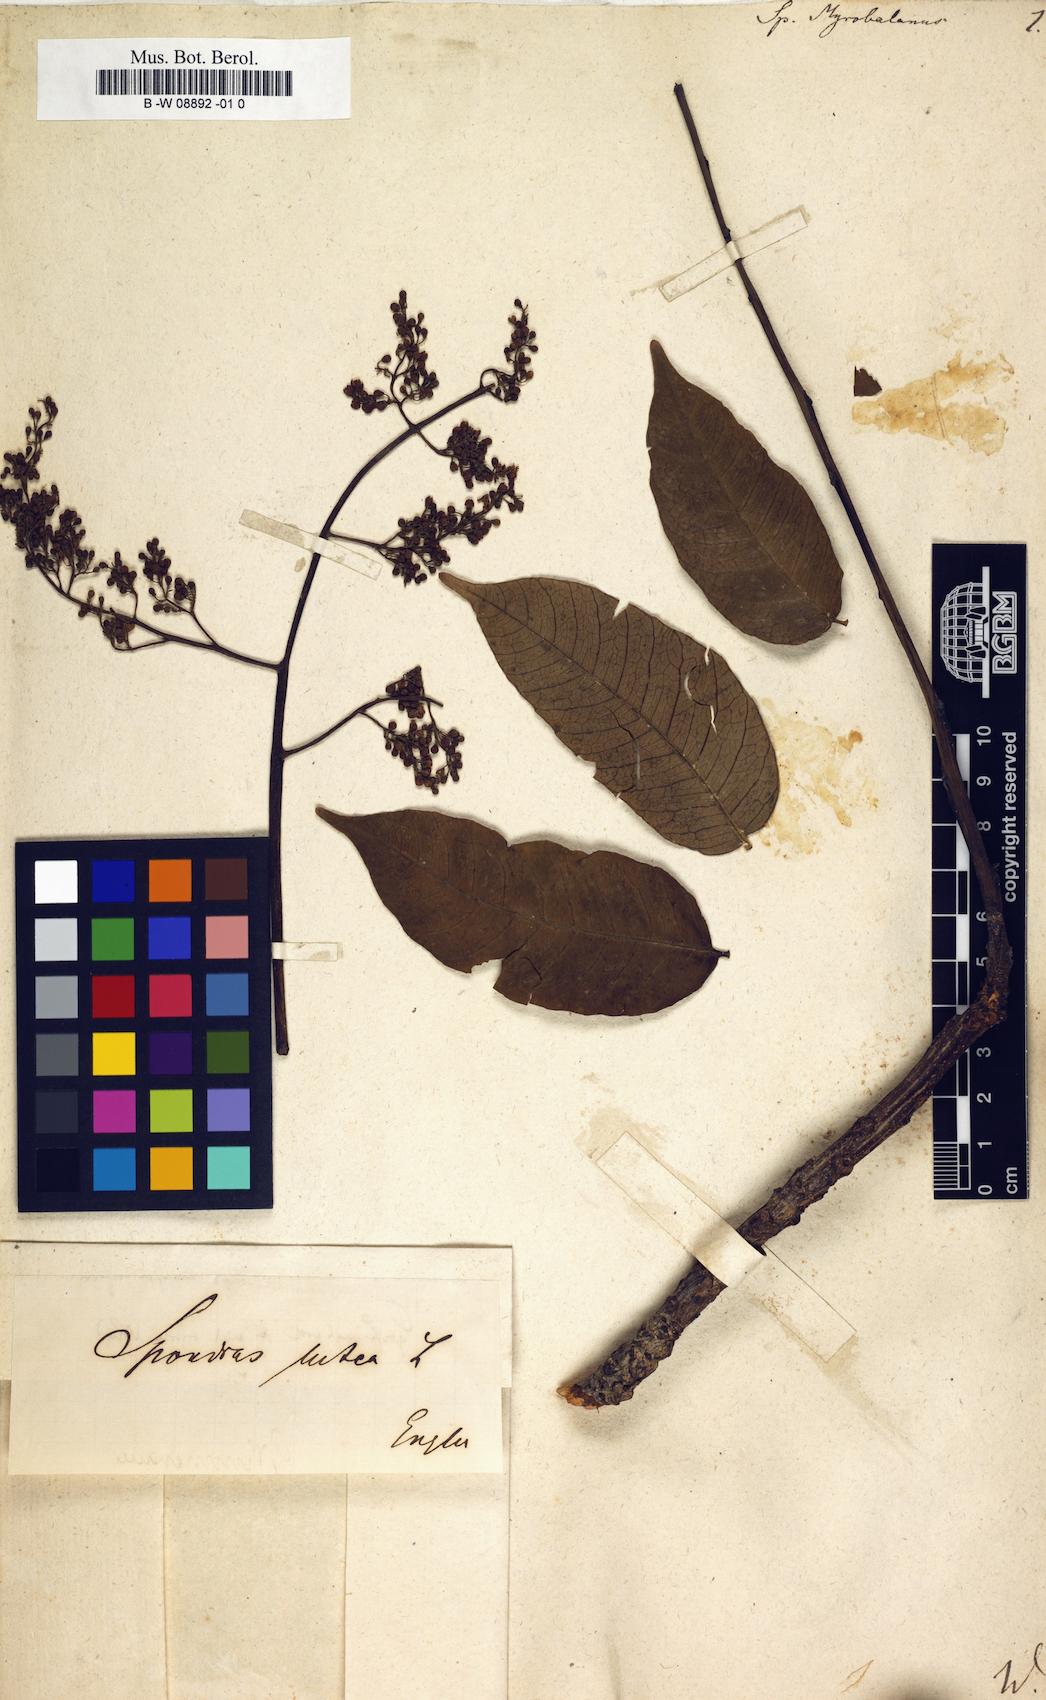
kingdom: Plantae
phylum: Tracheophyta
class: Magnoliopsida
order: Sapindales
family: Anacardiaceae
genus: Spondias
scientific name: Spondias
